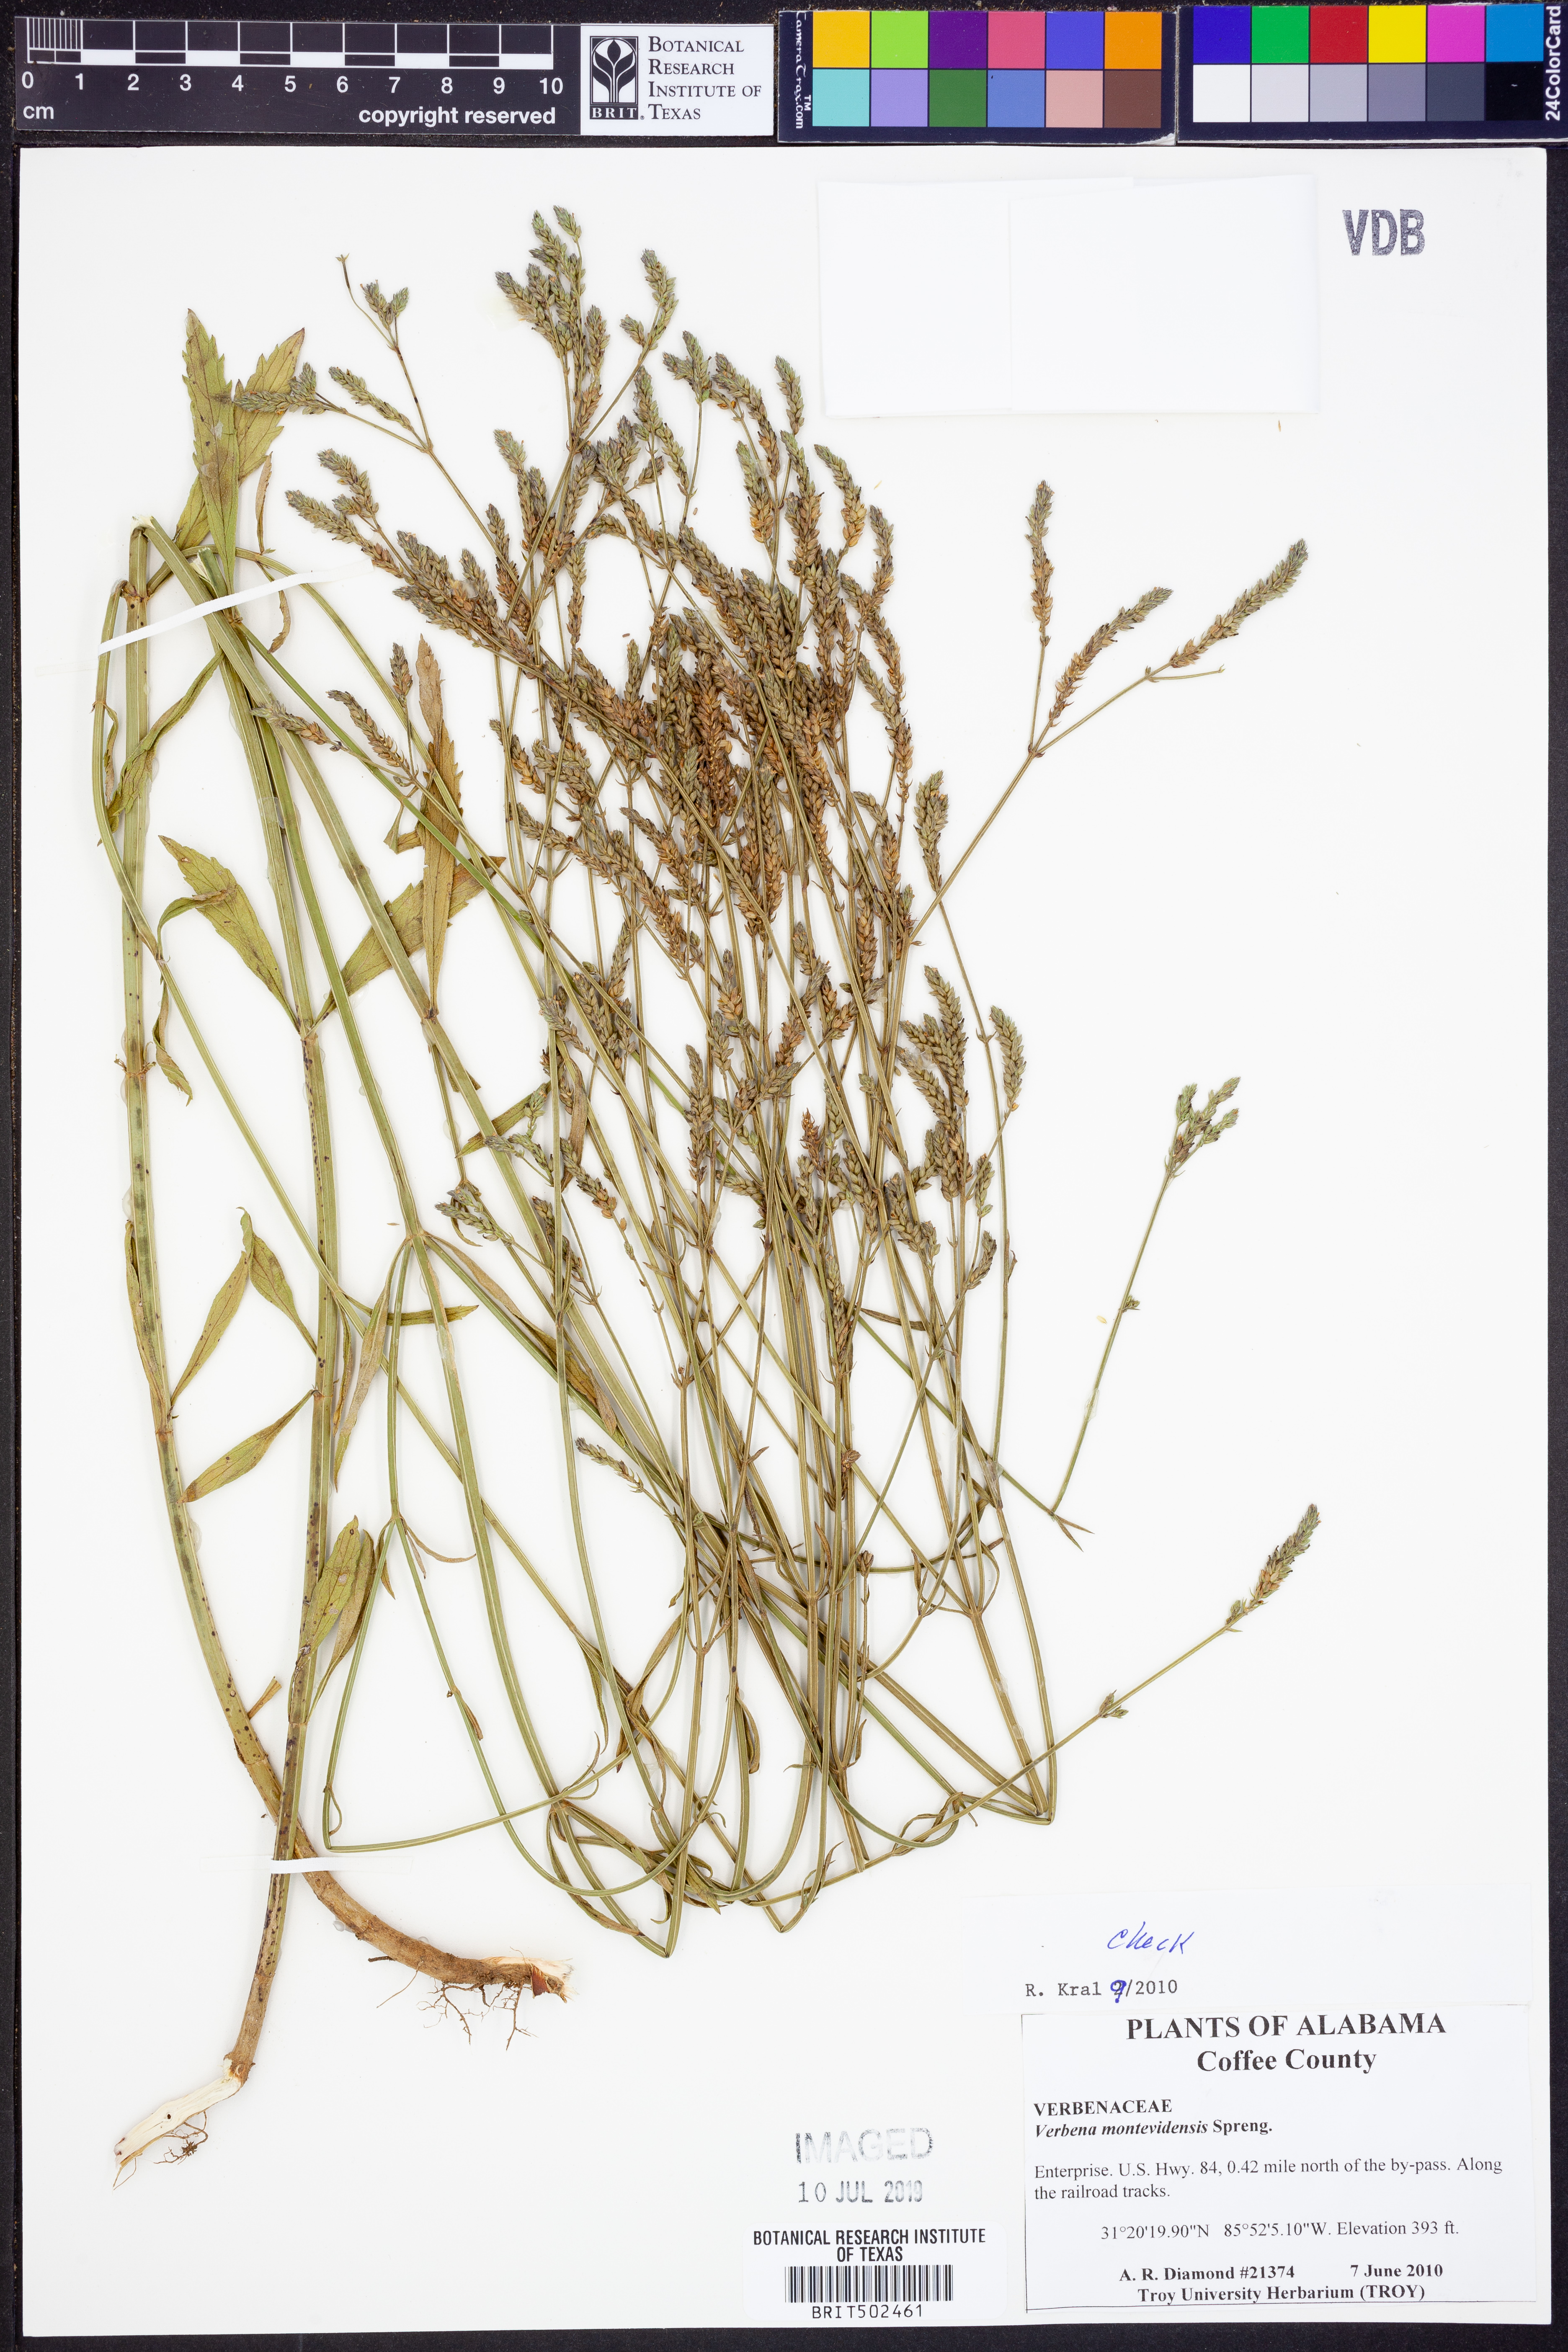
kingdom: Plantae
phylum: Tracheophyta
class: Magnoliopsida
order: Lamiales
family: Verbenaceae
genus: Verbena
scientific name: Verbena montevidensis
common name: Uruguayan vervain
